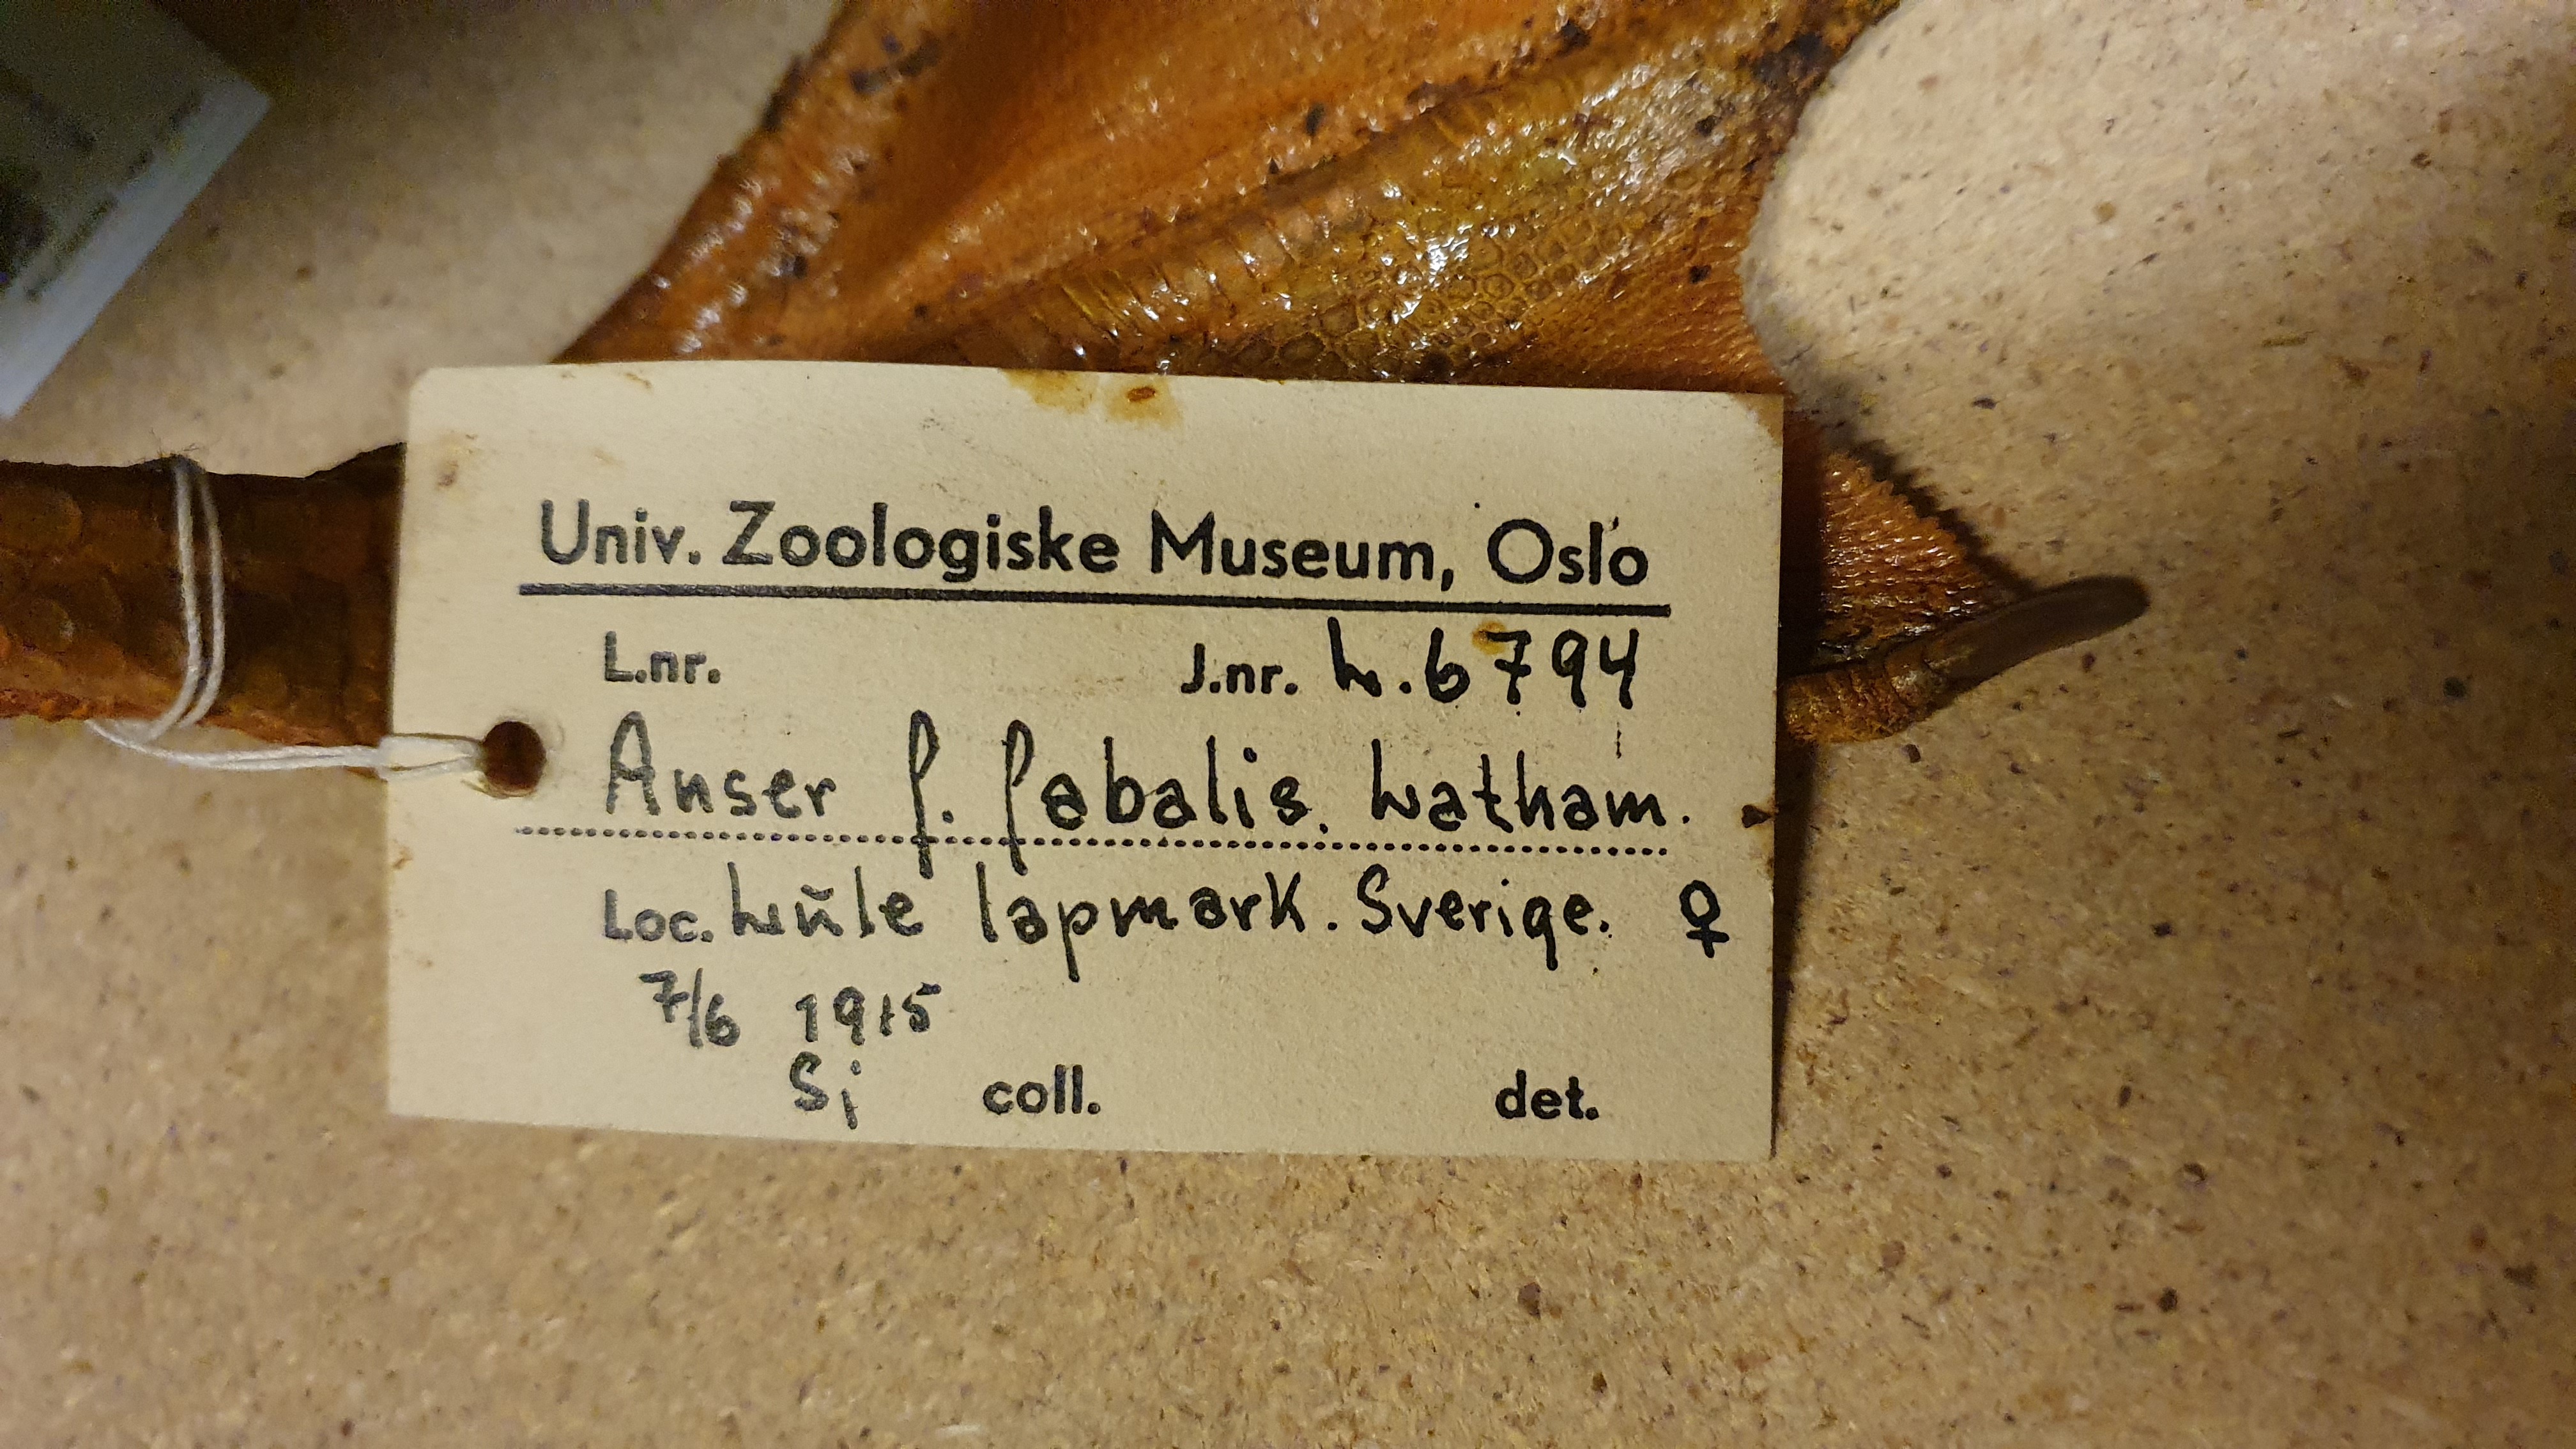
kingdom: Animalia
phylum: Chordata
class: Aves
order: Anseriformes
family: Anatidae
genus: Anser
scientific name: Anser fabalis
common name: Bean goose
